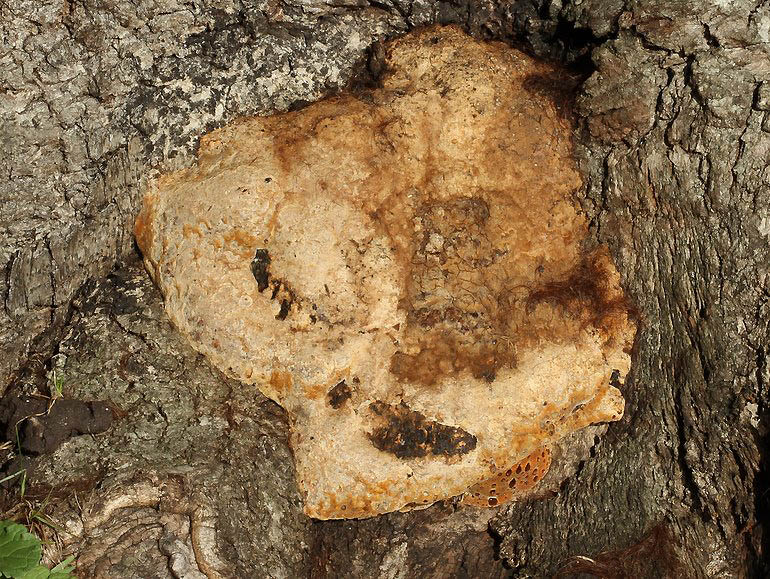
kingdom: Fungi
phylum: Basidiomycota
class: Agaricomycetes
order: Hymenochaetales
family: Hymenochaetaceae
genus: Pseudoinonotus
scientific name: Pseudoinonotus dryadeus
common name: ege-spejlporesvamp
